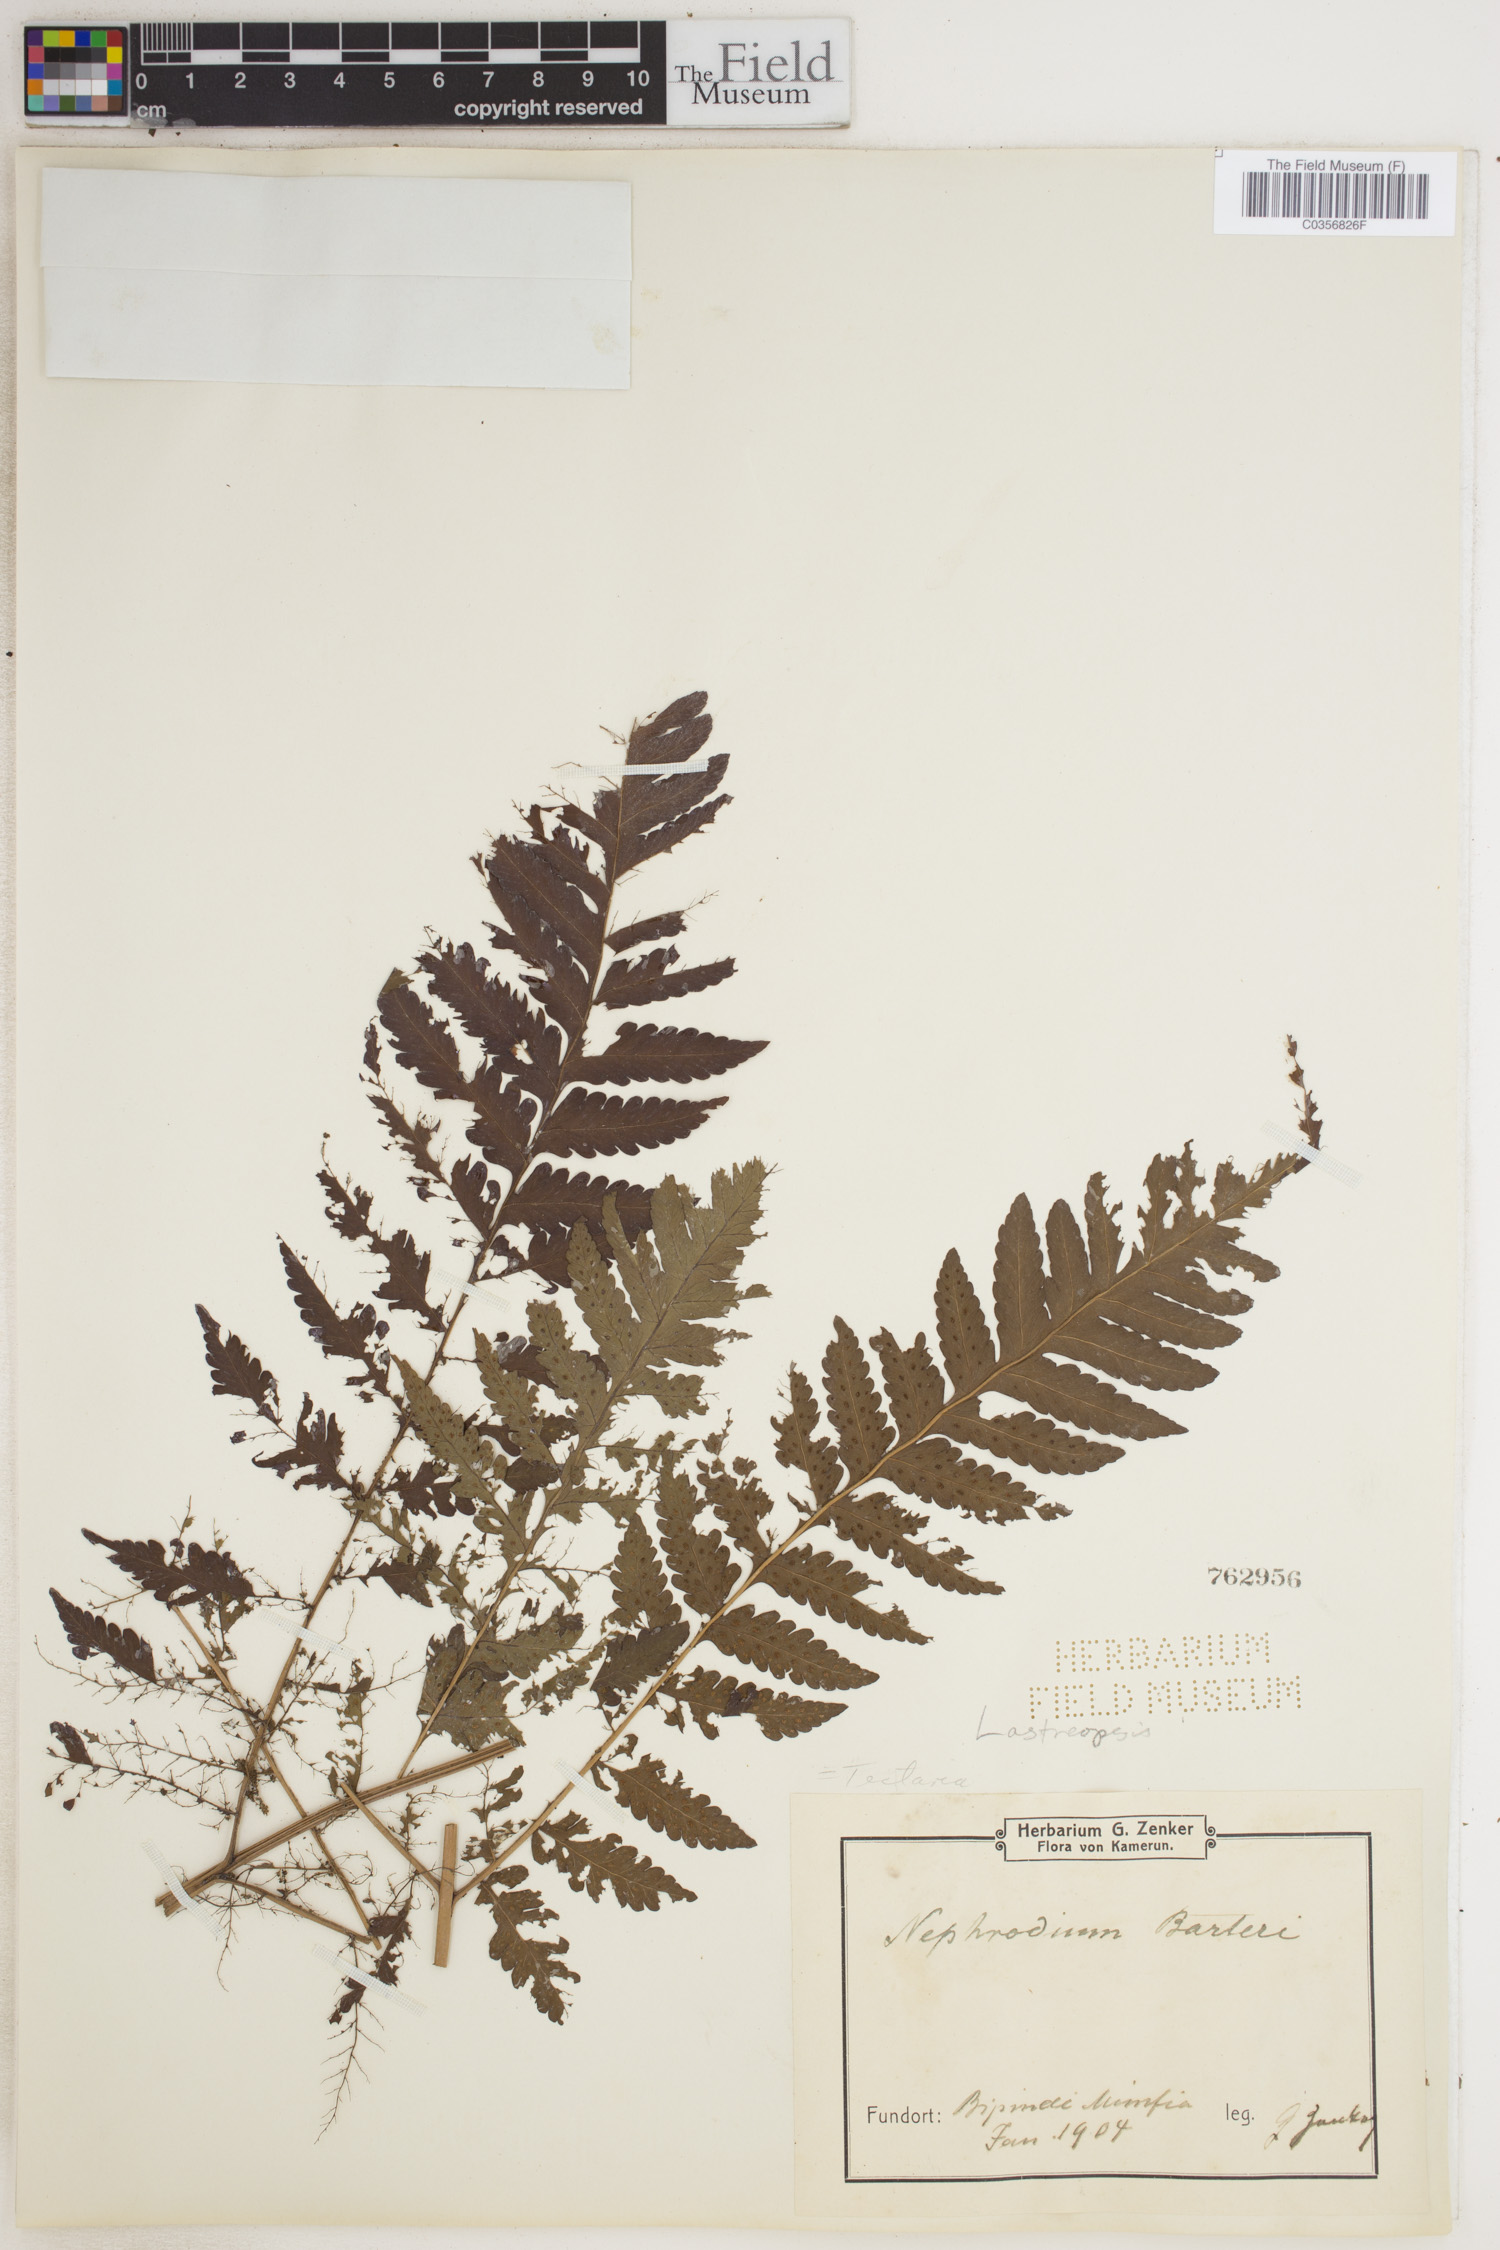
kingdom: Plantae
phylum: Tracheophyta
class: Polypodiopsida
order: Polypodiales
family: Tectariaceae
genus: Tectaria
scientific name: Tectaria barteri
